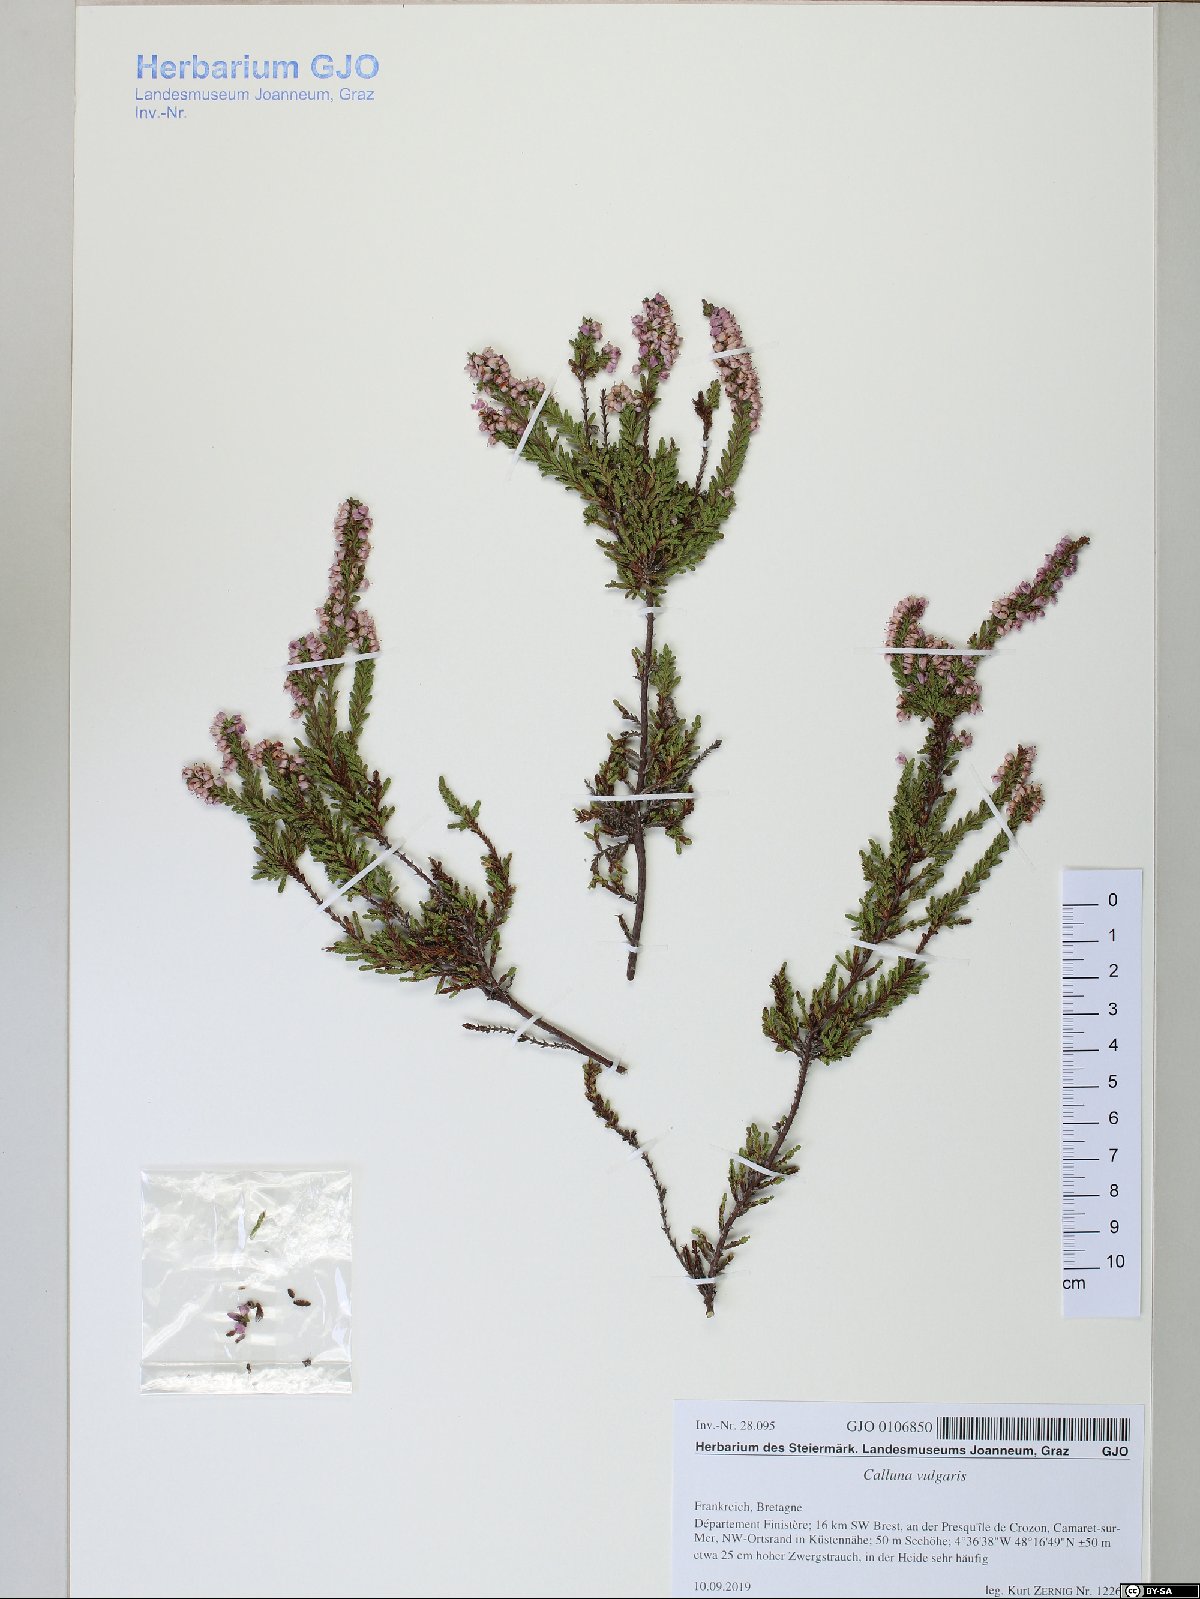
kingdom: Plantae
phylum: Tracheophyta
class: Magnoliopsida
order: Ericales
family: Ericaceae
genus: Calluna
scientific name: Calluna vulgaris
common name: Heather
